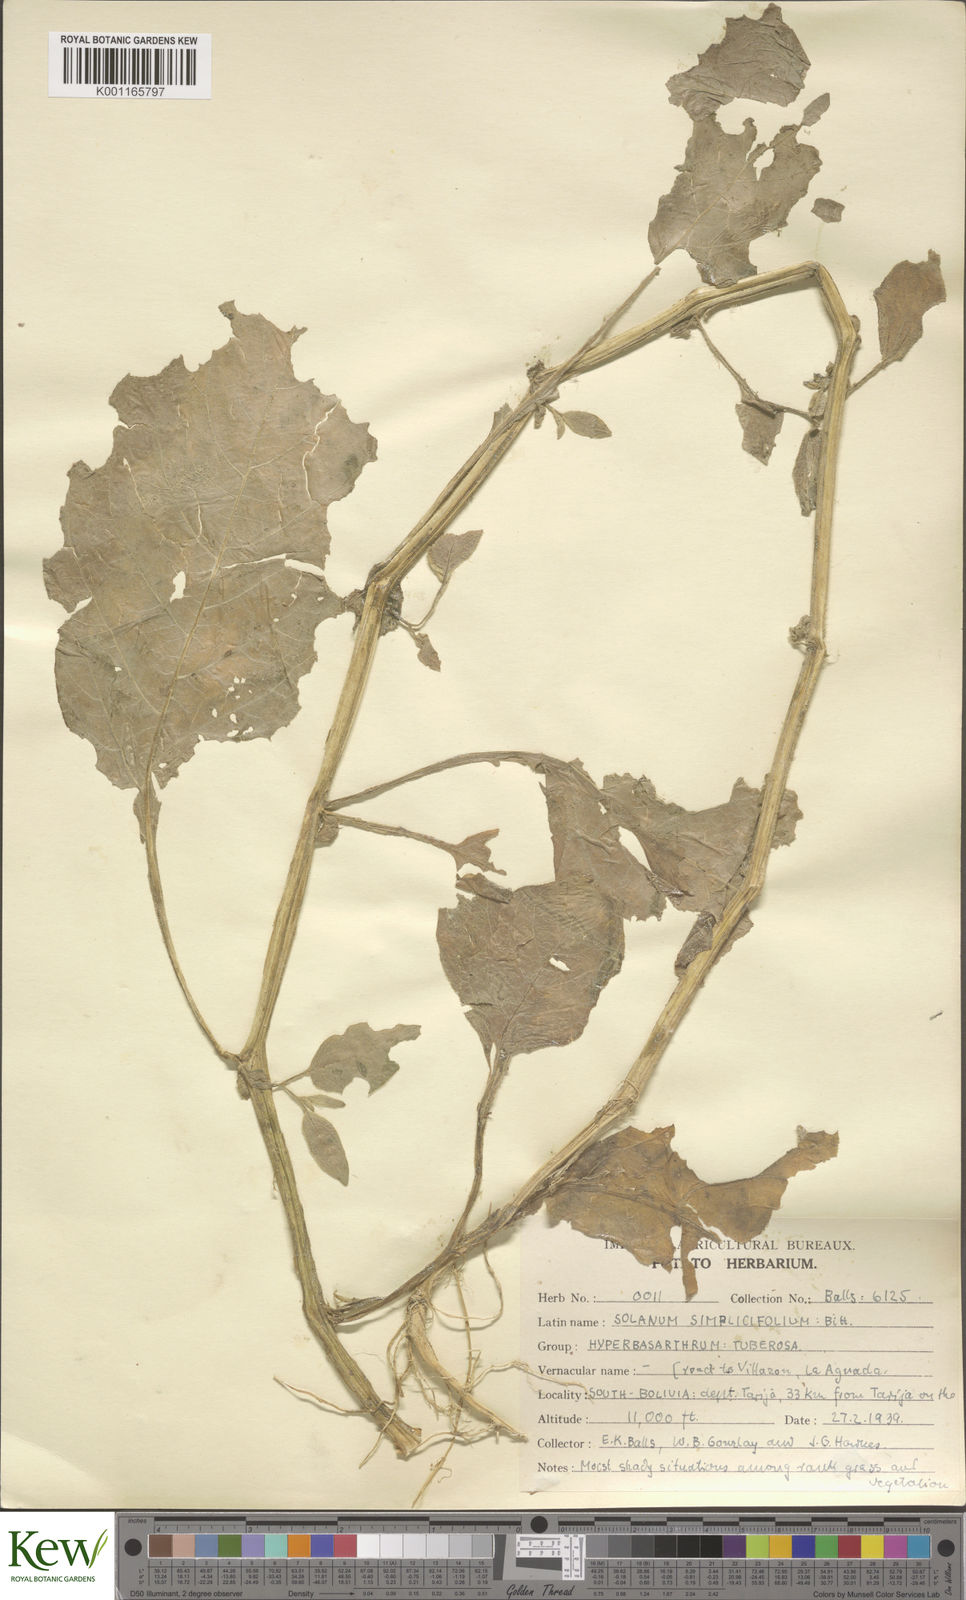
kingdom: Plantae
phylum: Tracheophyta
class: Magnoliopsida
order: Solanales
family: Solanaceae
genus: Solanum
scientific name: Solanum microdontum
